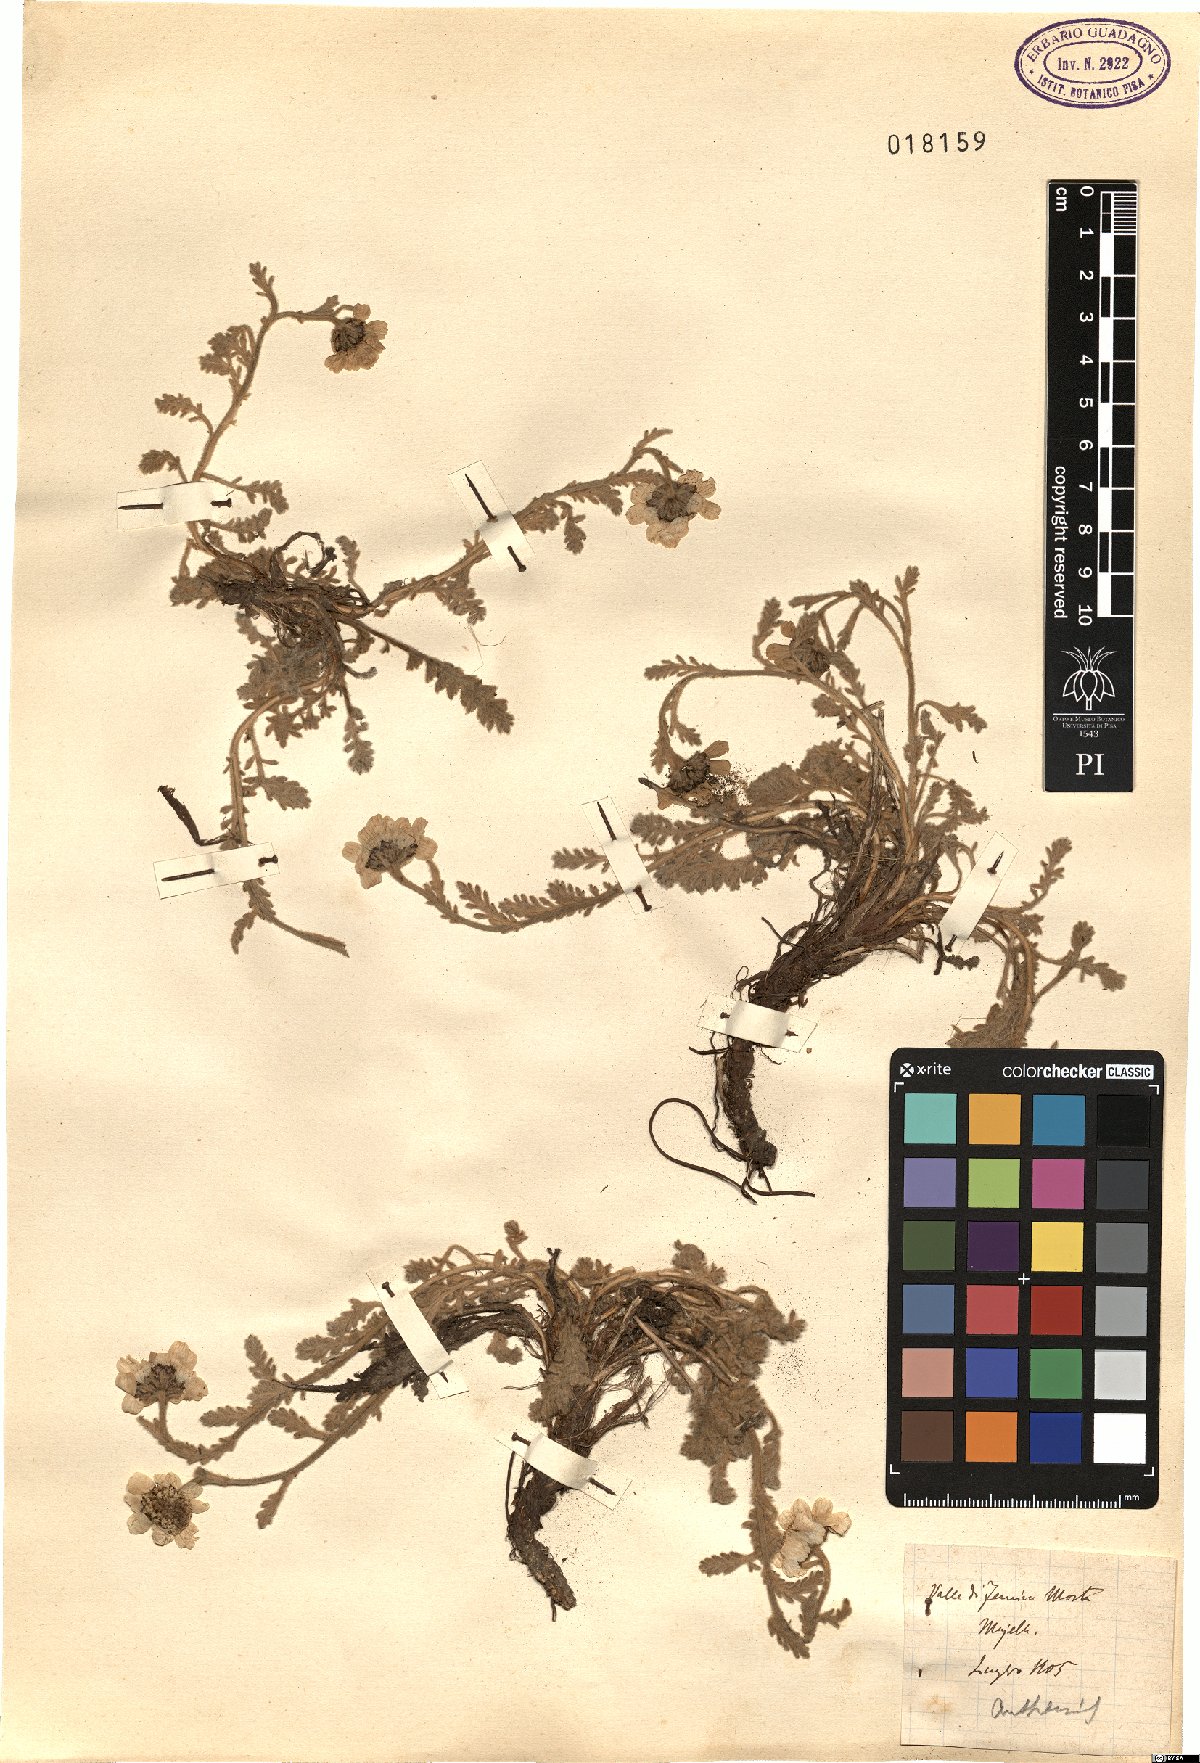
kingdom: Plantae
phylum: Tracheophyta
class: Magnoliopsida
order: Asterales
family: Asteraceae
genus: Anthemis
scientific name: Anthemis
